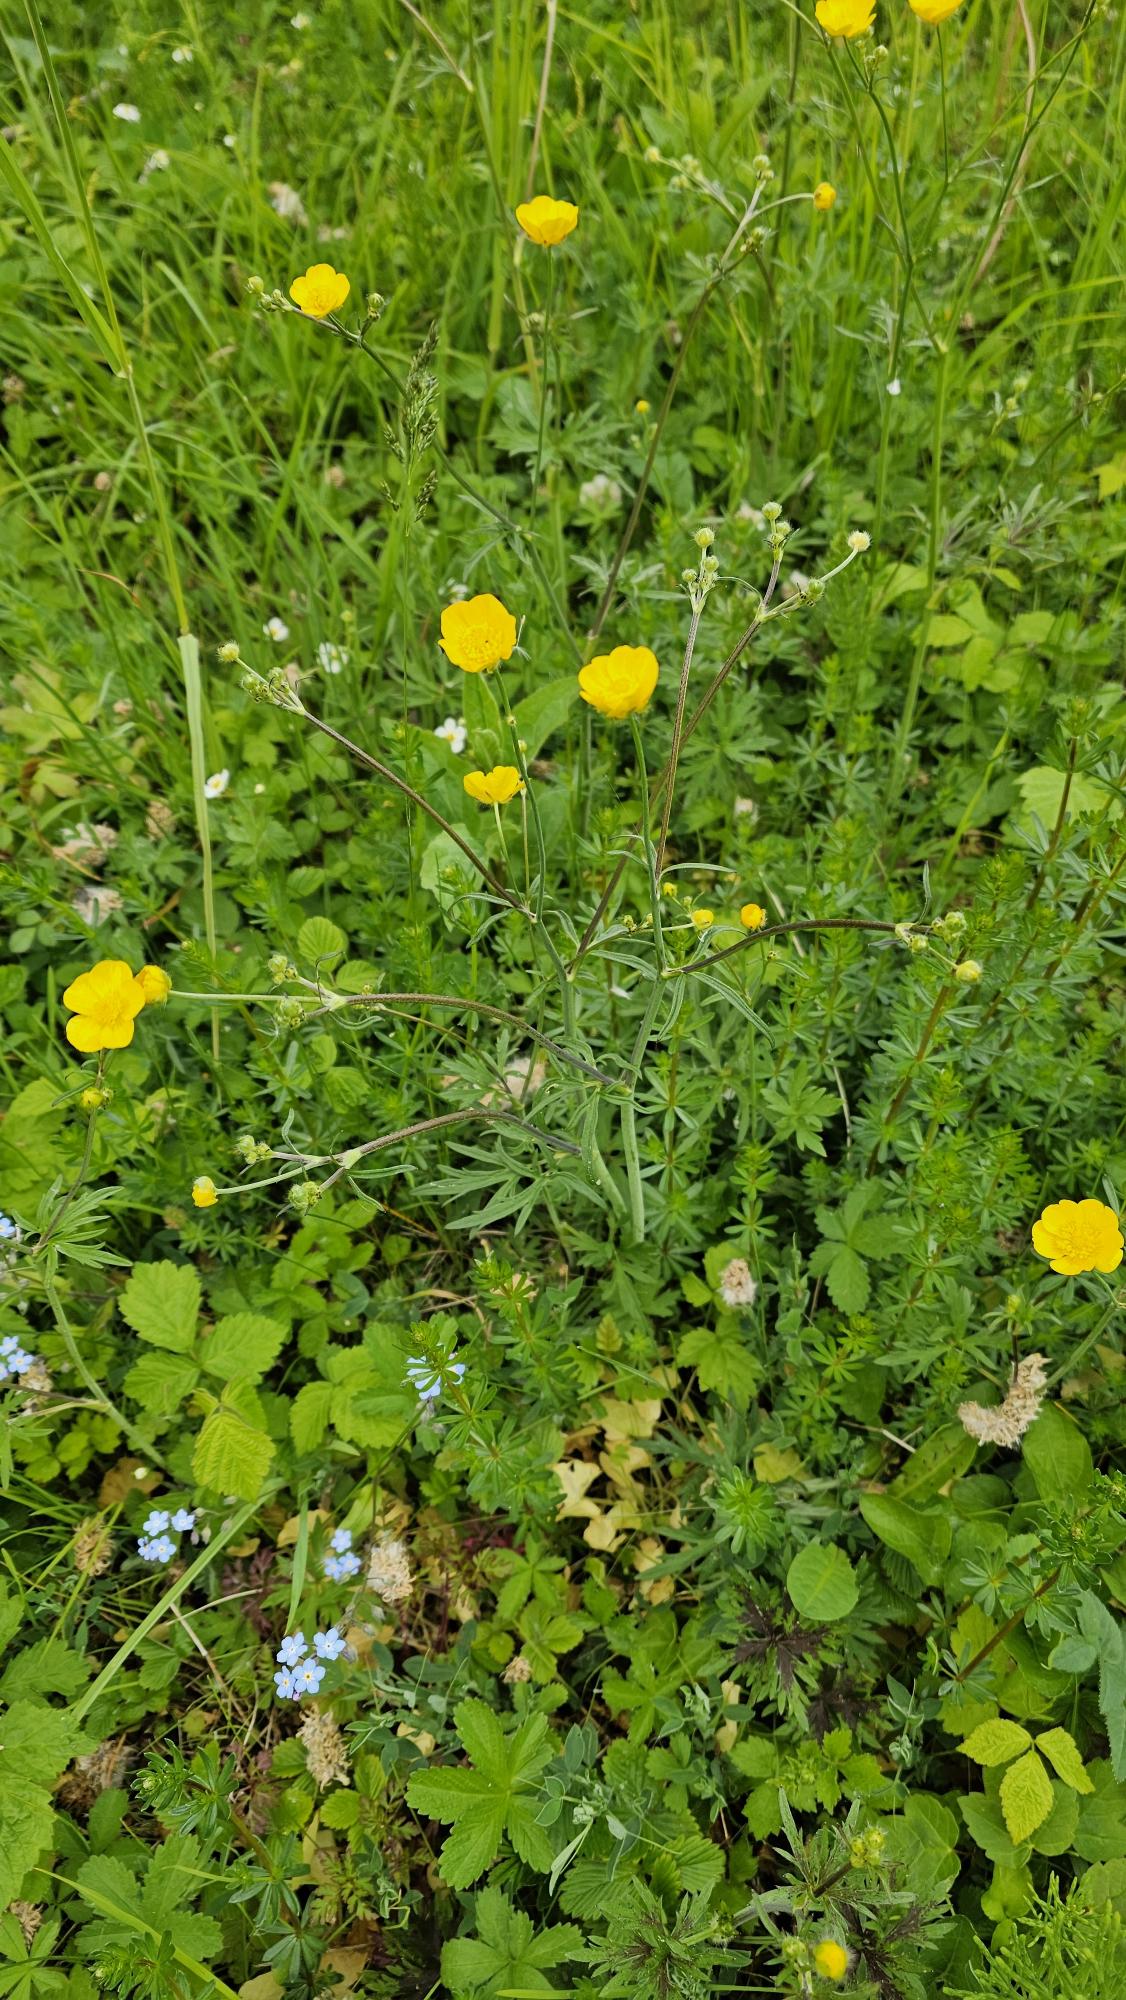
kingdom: Plantae
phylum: Tracheophyta
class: Magnoliopsida
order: Ranunculales
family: Ranunculaceae
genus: Ranunculus
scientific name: Ranunculus acris
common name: Bidende ranunkel
